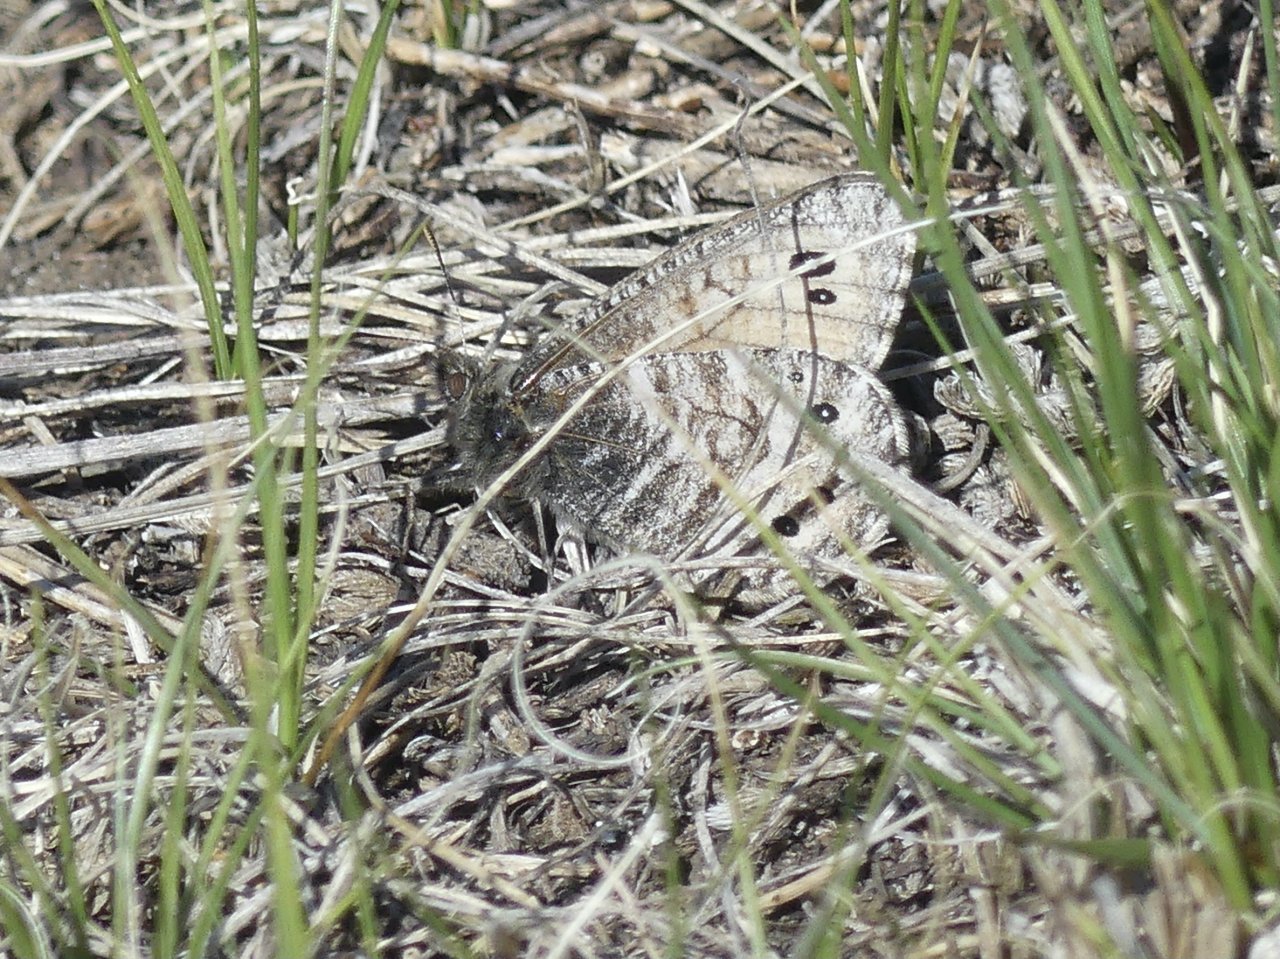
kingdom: Animalia
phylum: Arthropoda
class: Insecta
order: Lepidoptera
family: Nymphalidae
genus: Oeneis
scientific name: Oeneis uhleri
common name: Uhler's Arctic
